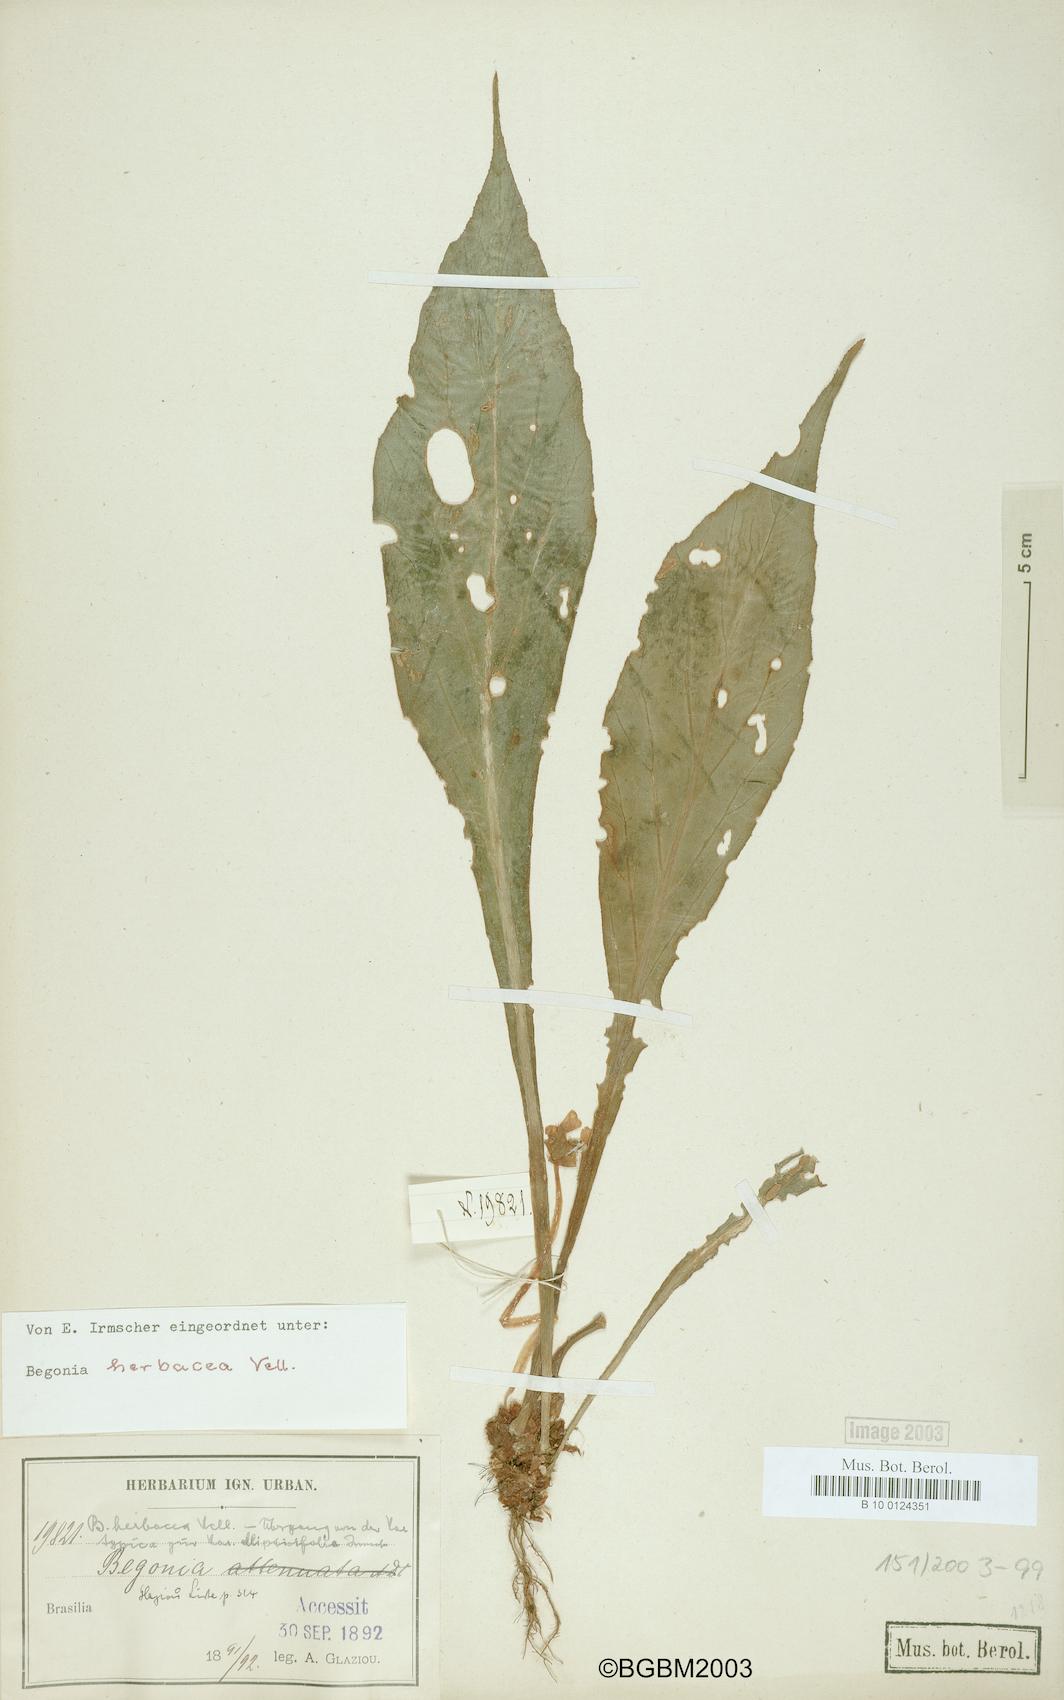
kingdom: Plantae
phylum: Tracheophyta
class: Magnoliopsida
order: Cucurbitales
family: Begoniaceae
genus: Begonia
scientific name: Begonia herbacea
